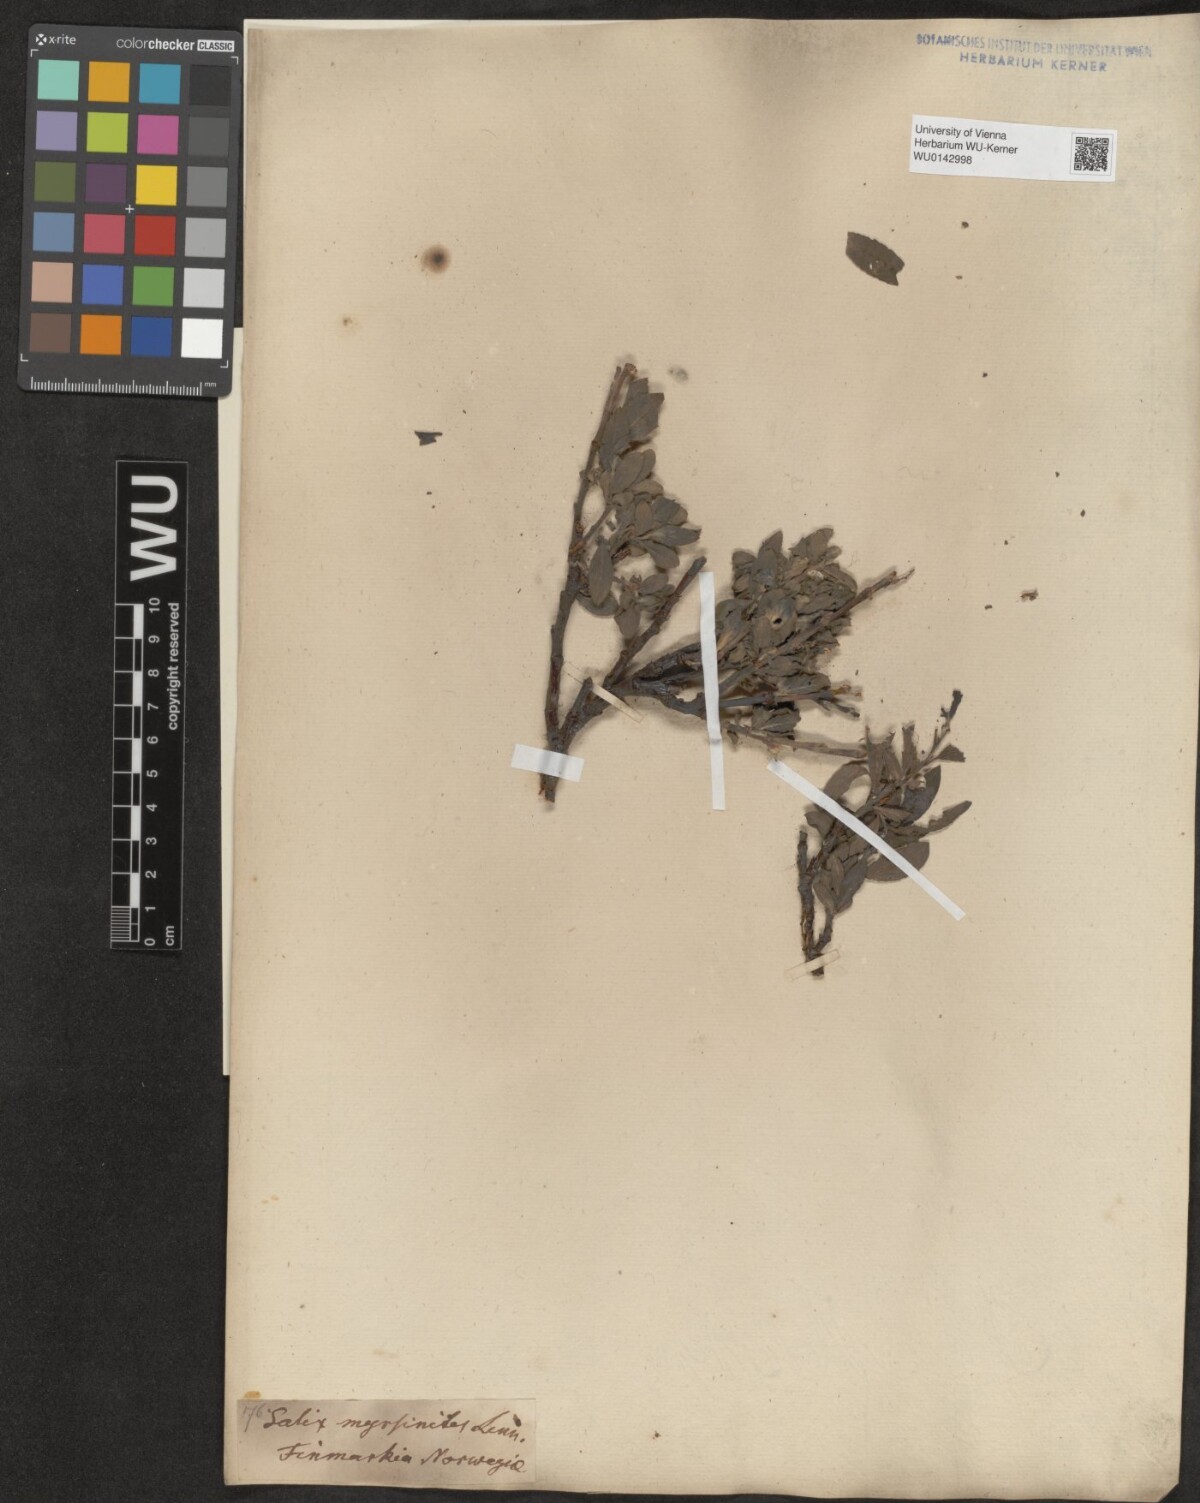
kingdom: Plantae
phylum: Tracheophyta
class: Magnoliopsida
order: Malpighiales
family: Salicaceae
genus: Salix
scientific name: Salix myrsinites
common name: Myrtle willow
